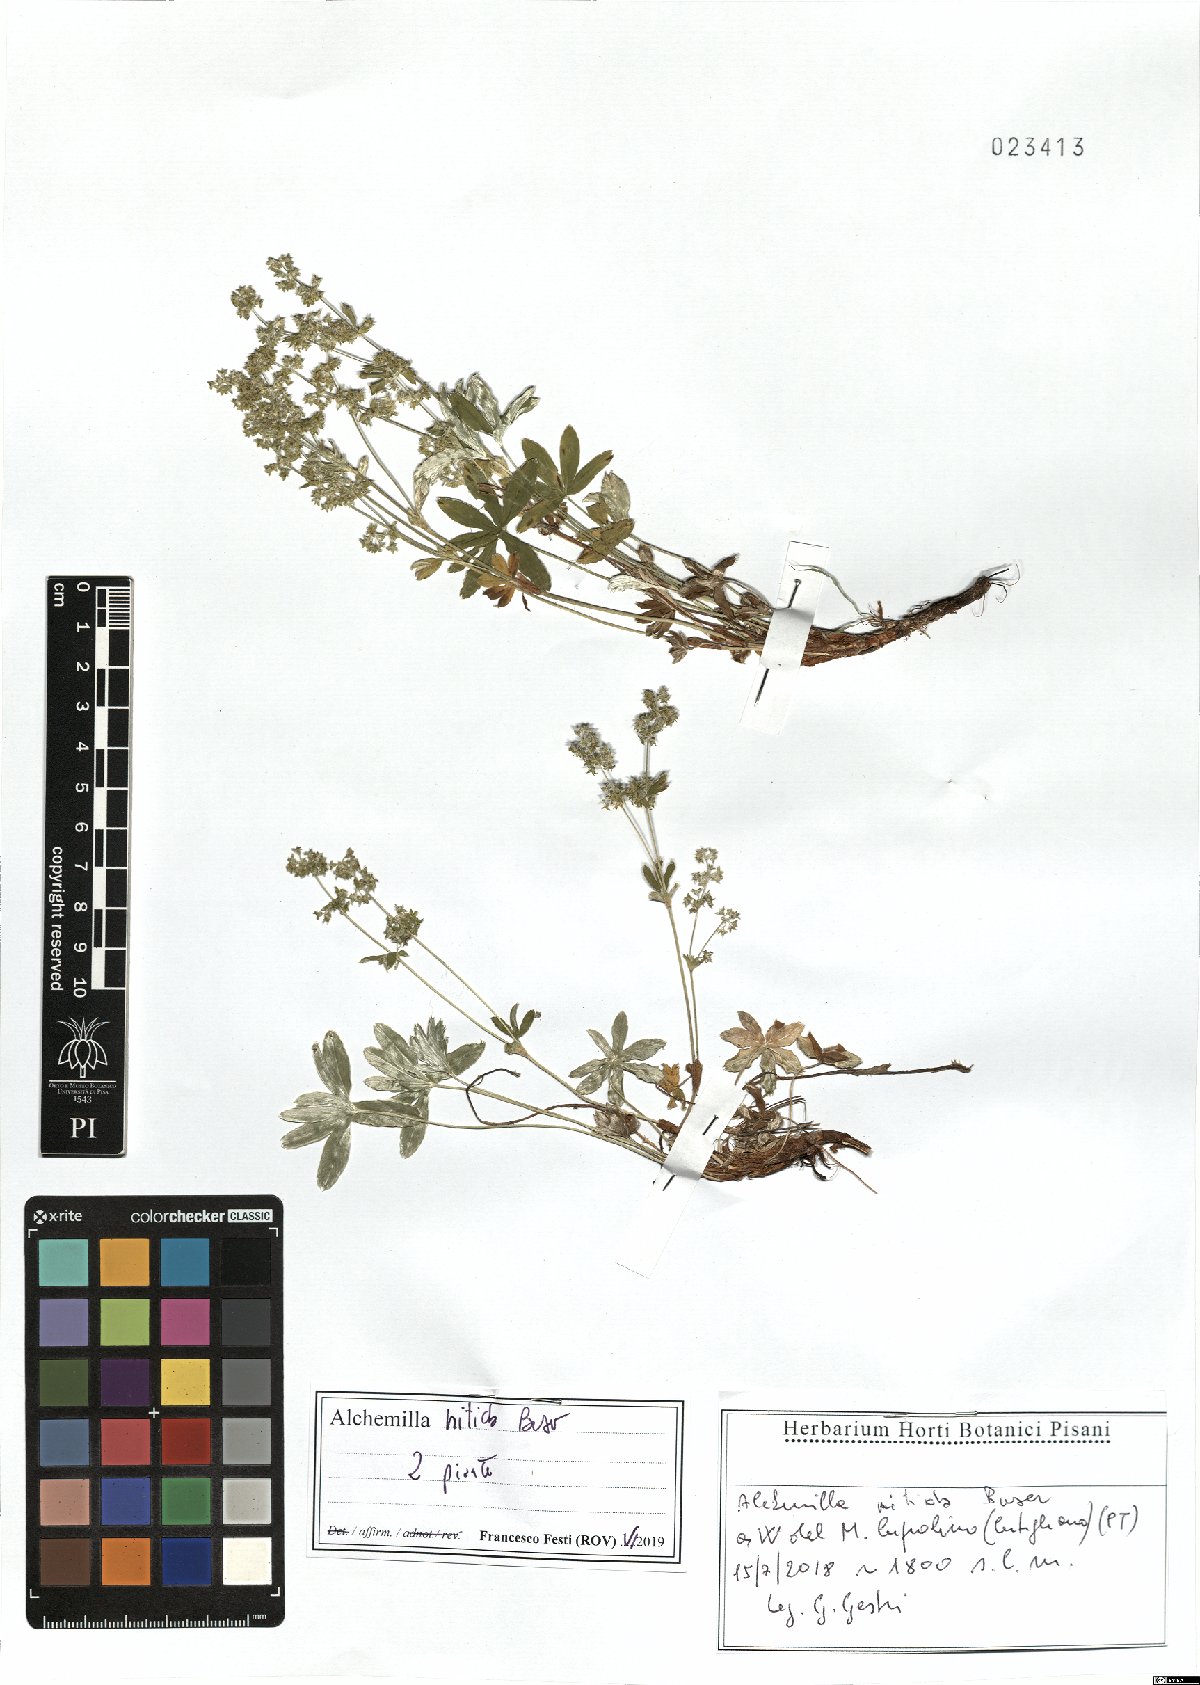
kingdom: Plantae
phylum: Tracheophyta
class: Magnoliopsida
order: Rosales
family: Rosaceae
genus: Alchemilla
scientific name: Alchemilla nitida
